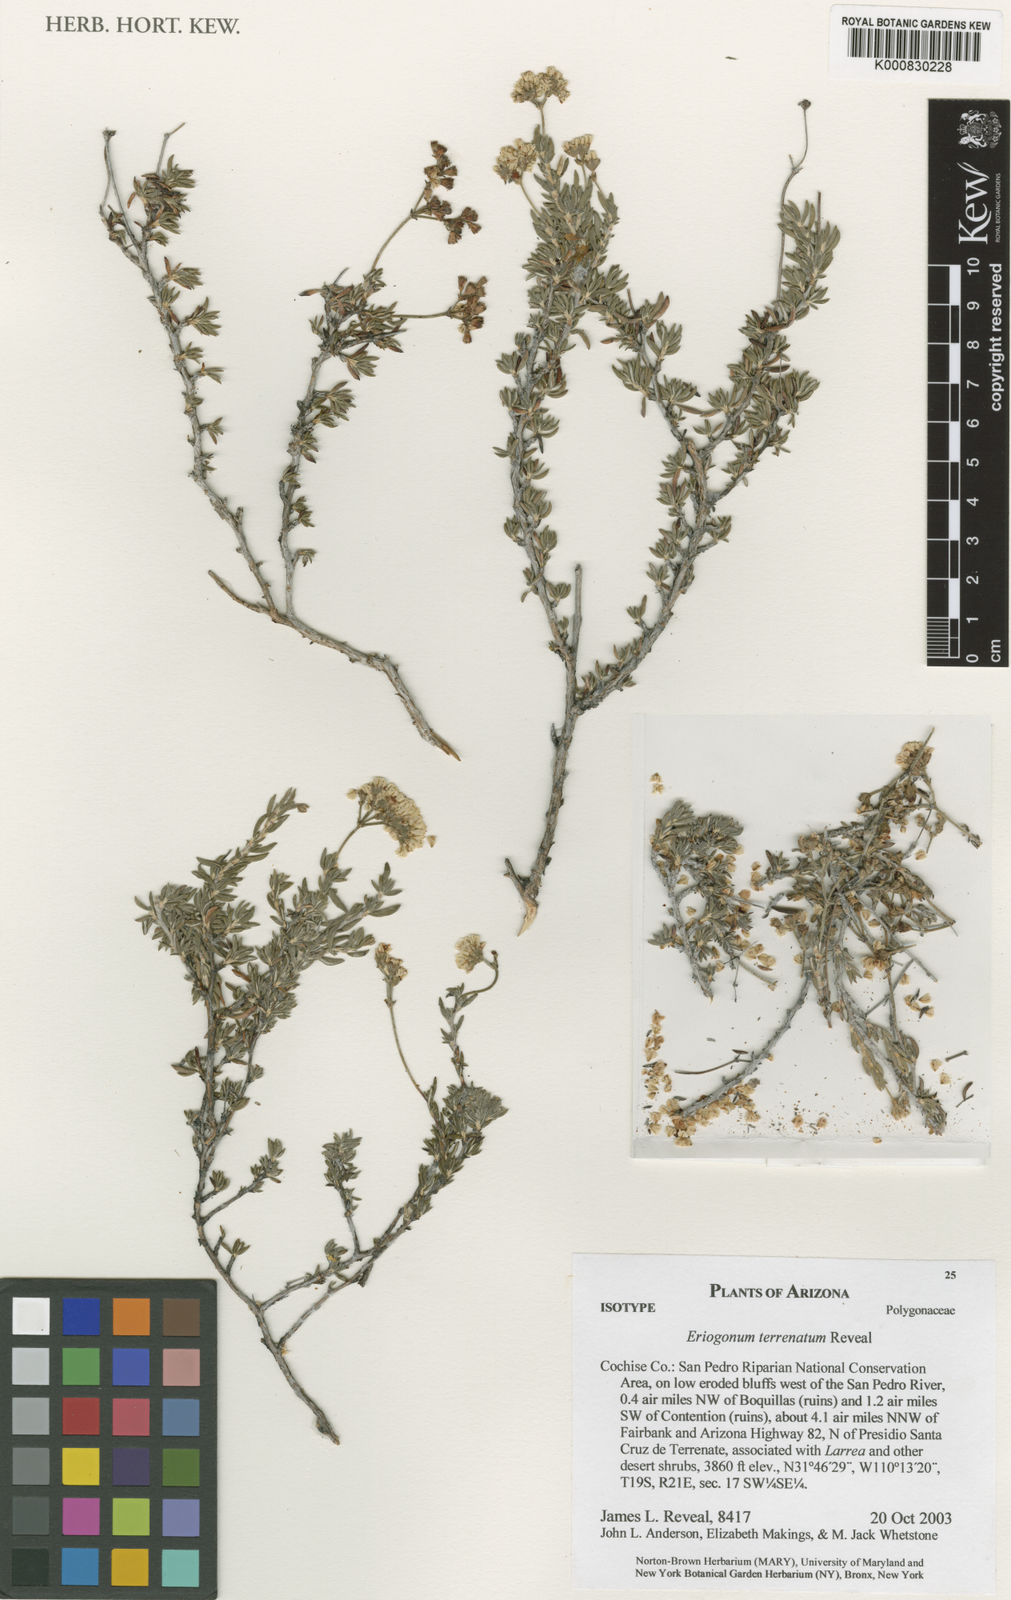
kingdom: Plantae
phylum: Tracheophyta
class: Magnoliopsida
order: Caryophyllales
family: Polygonaceae
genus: Eriogonum
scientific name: Eriogonum terrenatum
